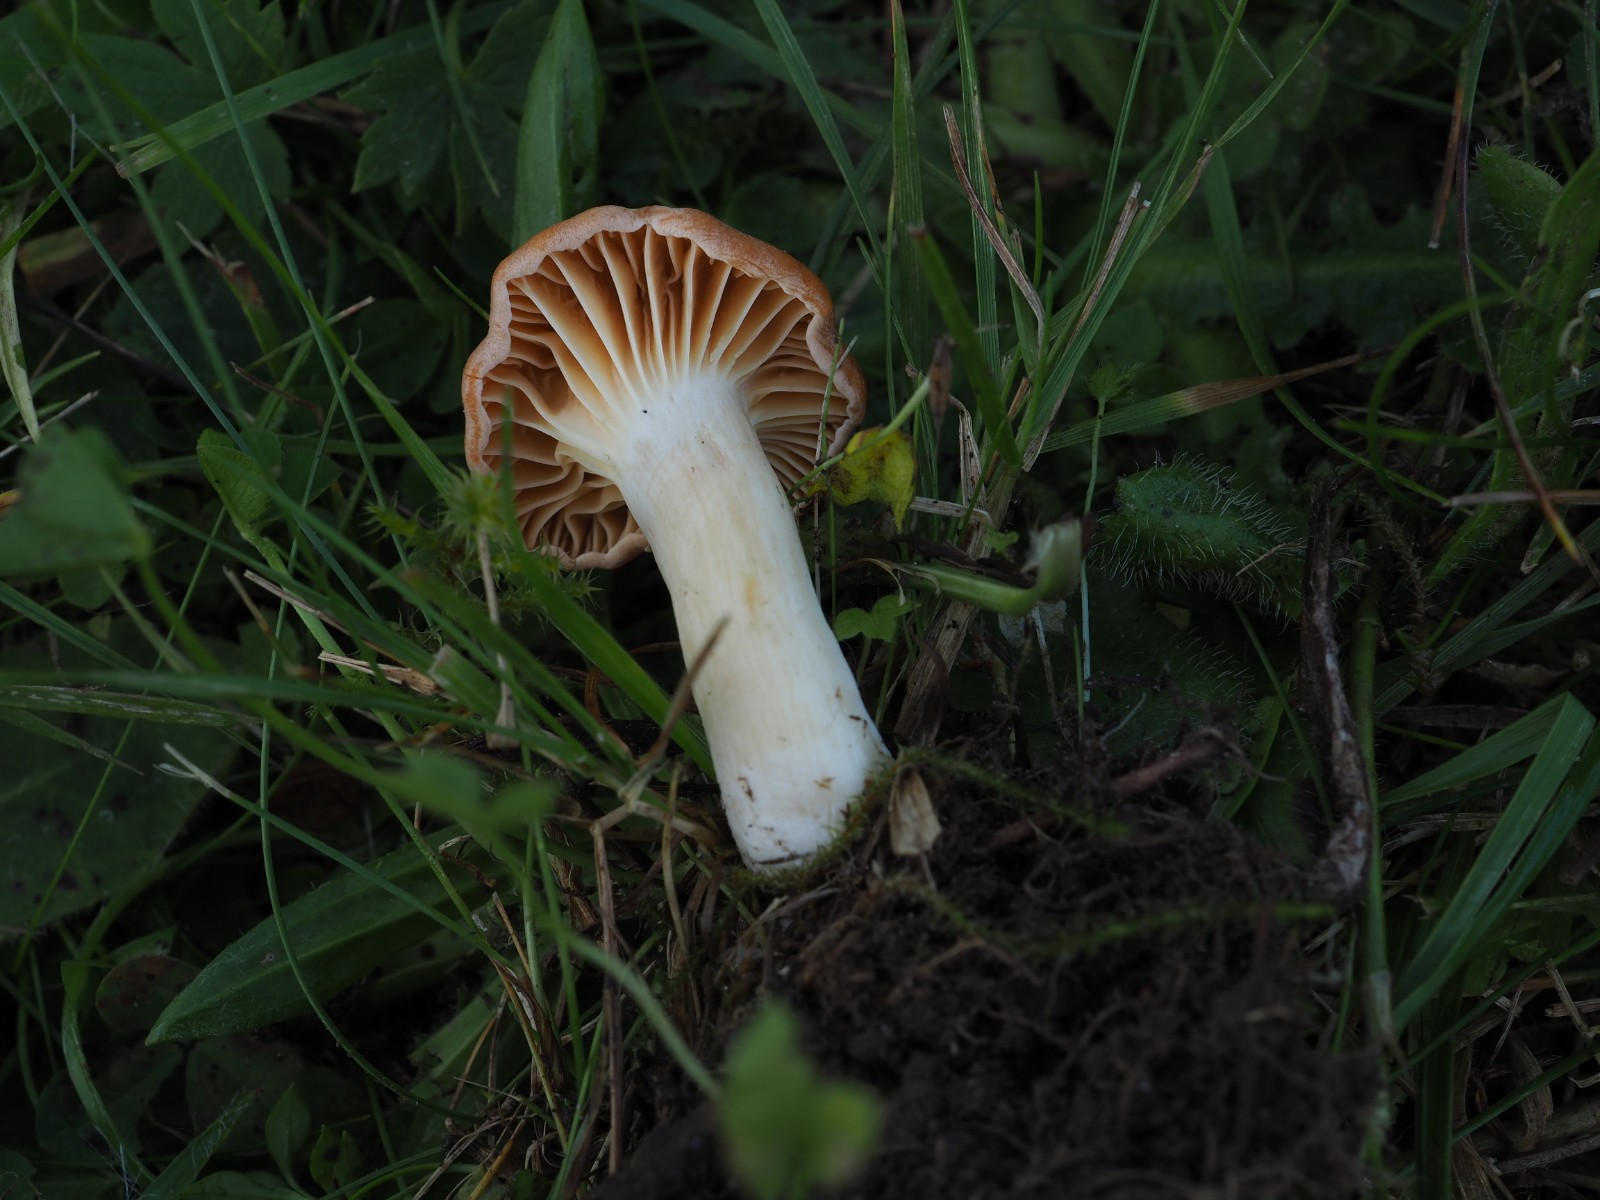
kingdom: Fungi
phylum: Basidiomycota
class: Agaricomycetes
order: Agaricales
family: Hygrophoraceae
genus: Cuphophyllus
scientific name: Cuphophyllus pratensis
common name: eng-vokshat
